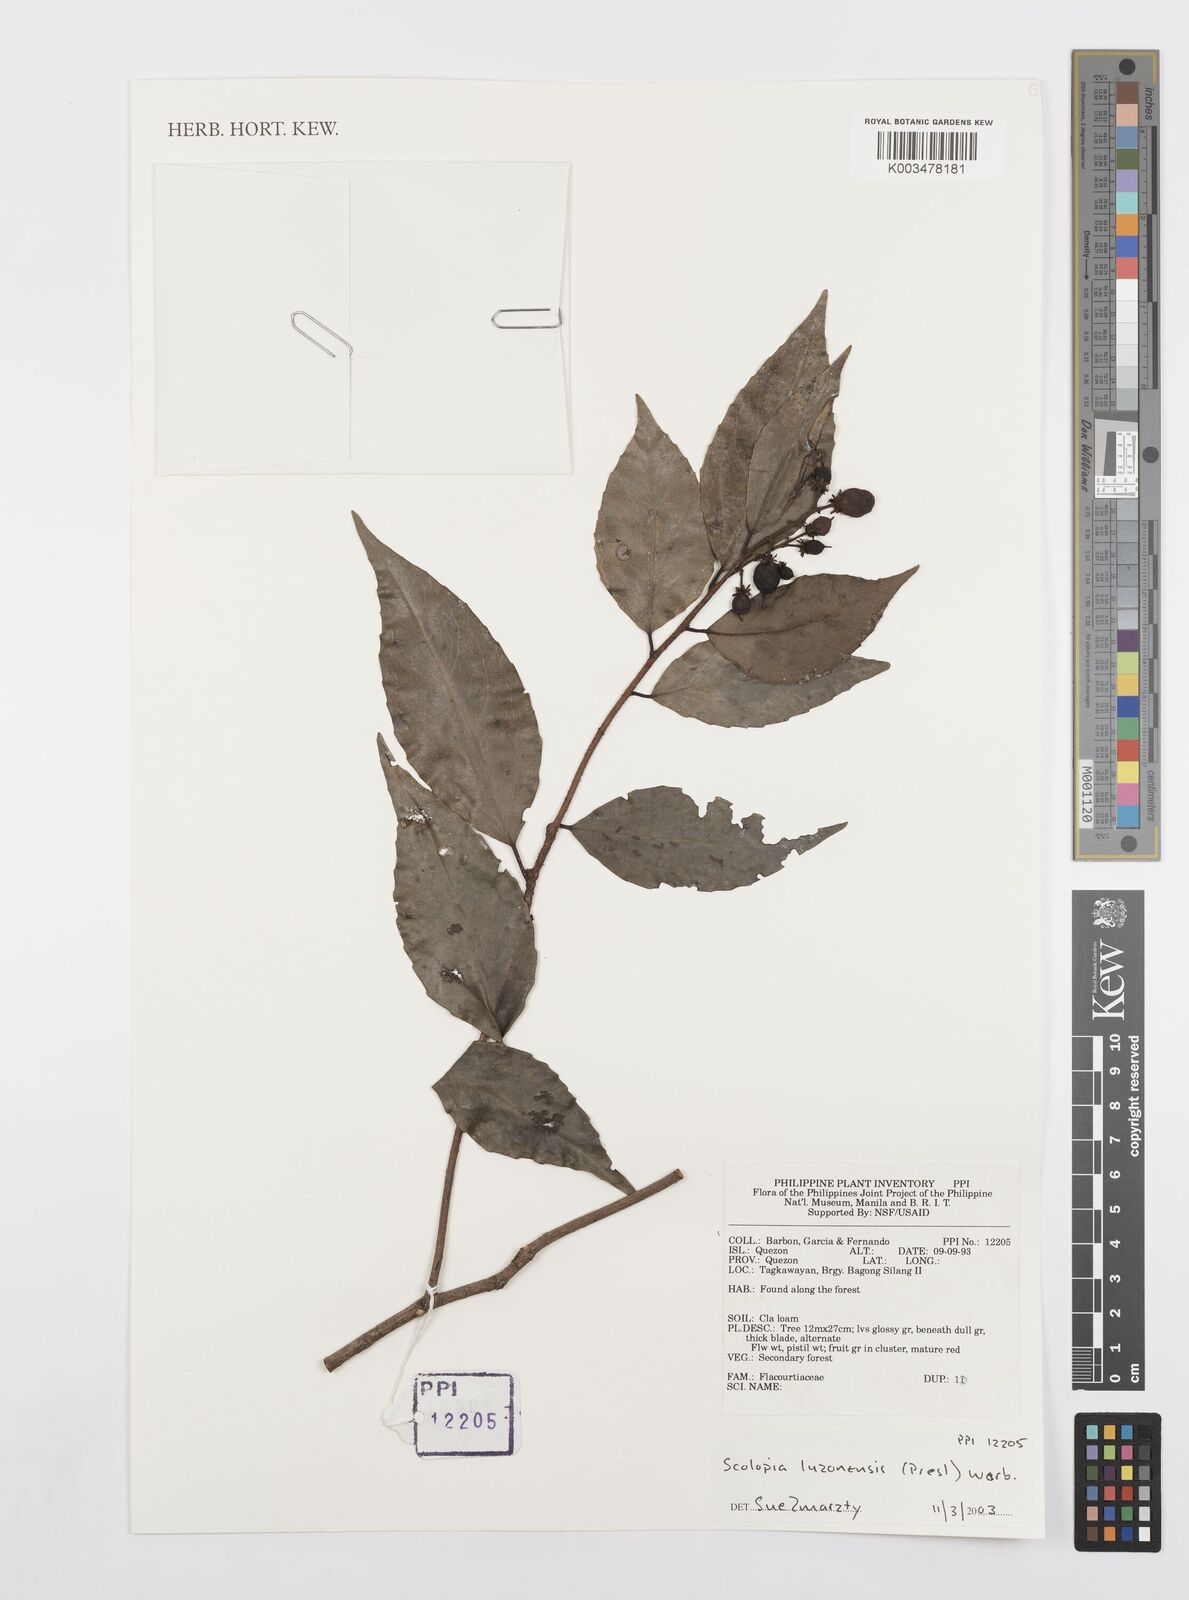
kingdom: Plantae
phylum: Tracheophyta
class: Magnoliopsida
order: Malpighiales
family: Salicaceae
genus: Scolopia
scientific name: Scolopia luzonensis
